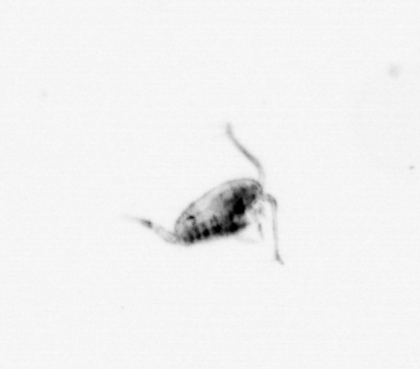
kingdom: Animalia
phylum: Arthropoda
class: Copepoda
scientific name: Copepoda
